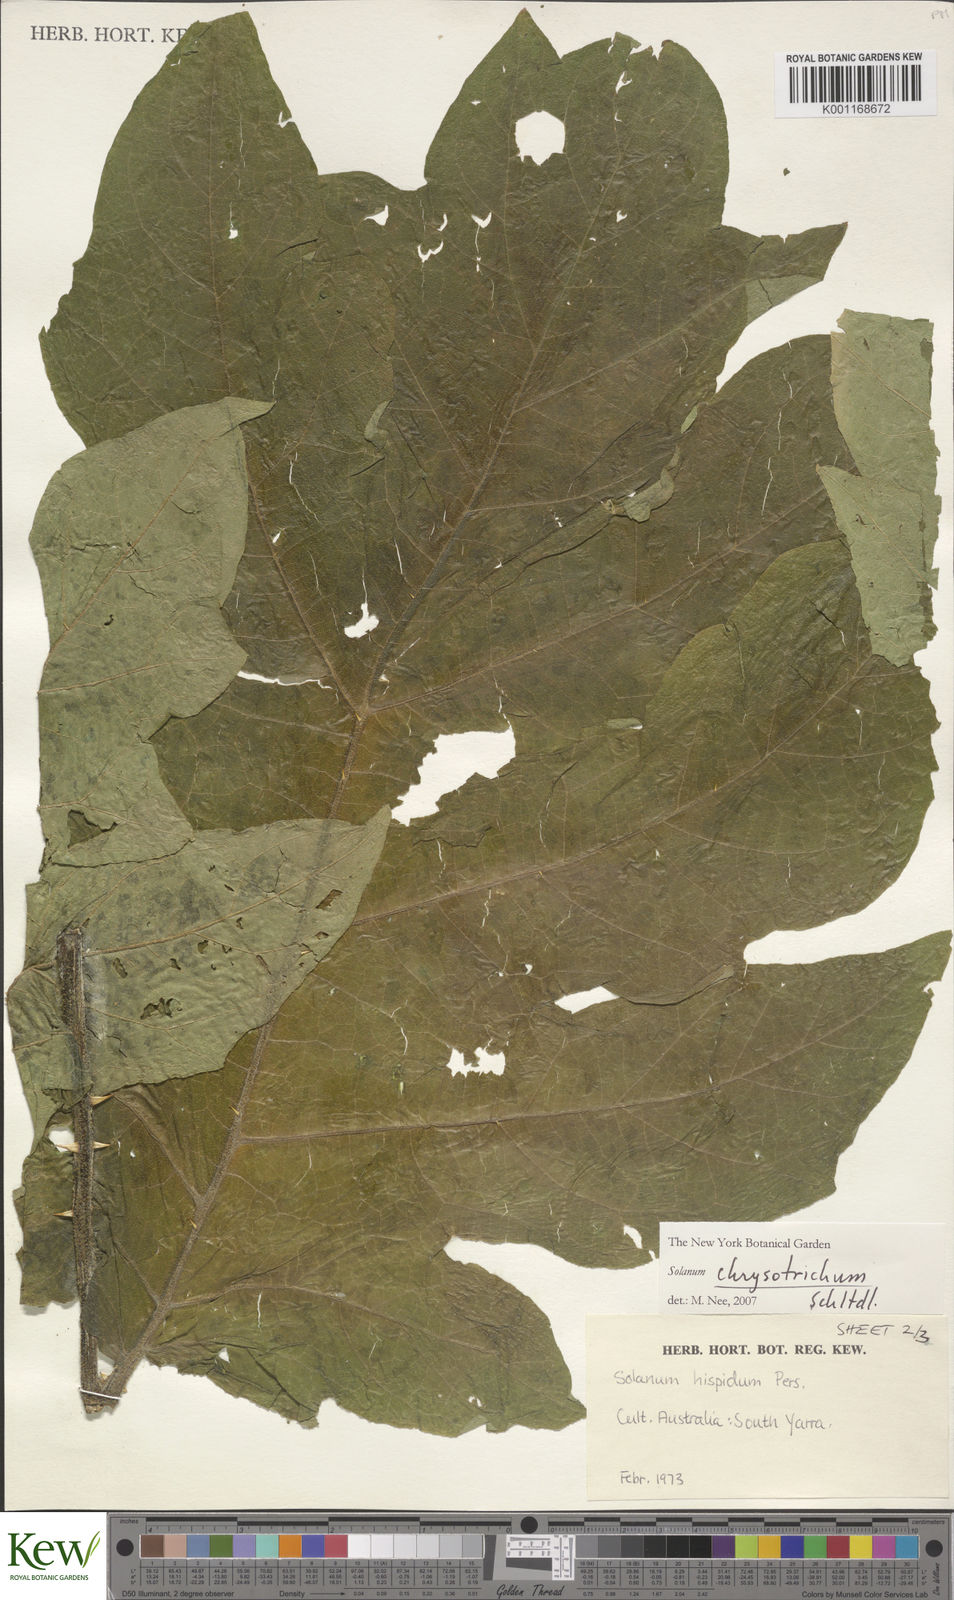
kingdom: Plantae
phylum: Tracheophyta
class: Magnoliopsida
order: Solanales
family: Solanaceae
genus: Solanum
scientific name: Solanum chrysotrichum
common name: Nightshade
